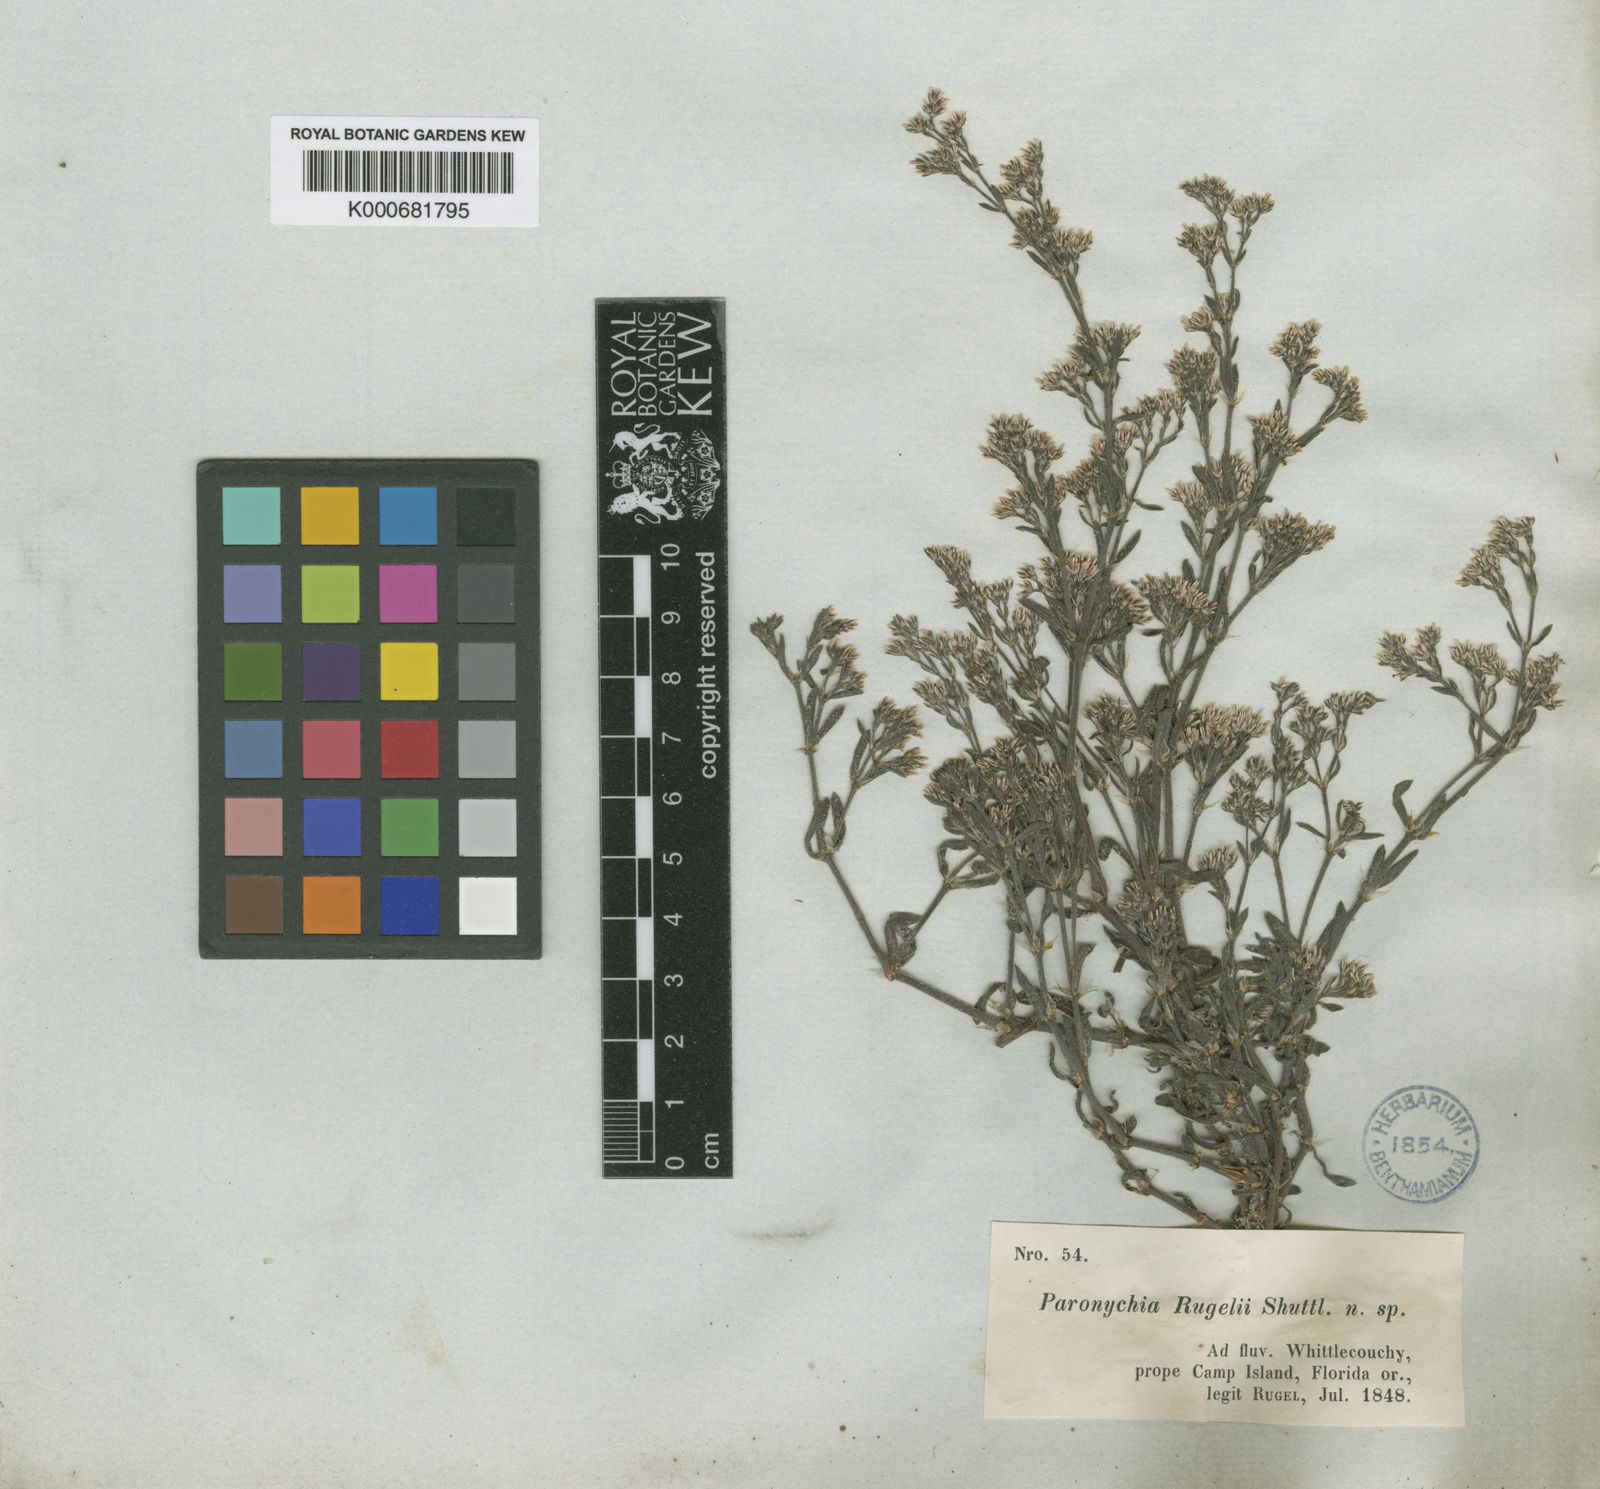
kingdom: Plantae
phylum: Tracheophyta
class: Magnoliopsida
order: Caryophyllales
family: Caryophyllaceae
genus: Paronychia
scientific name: Paronychia rugelii
